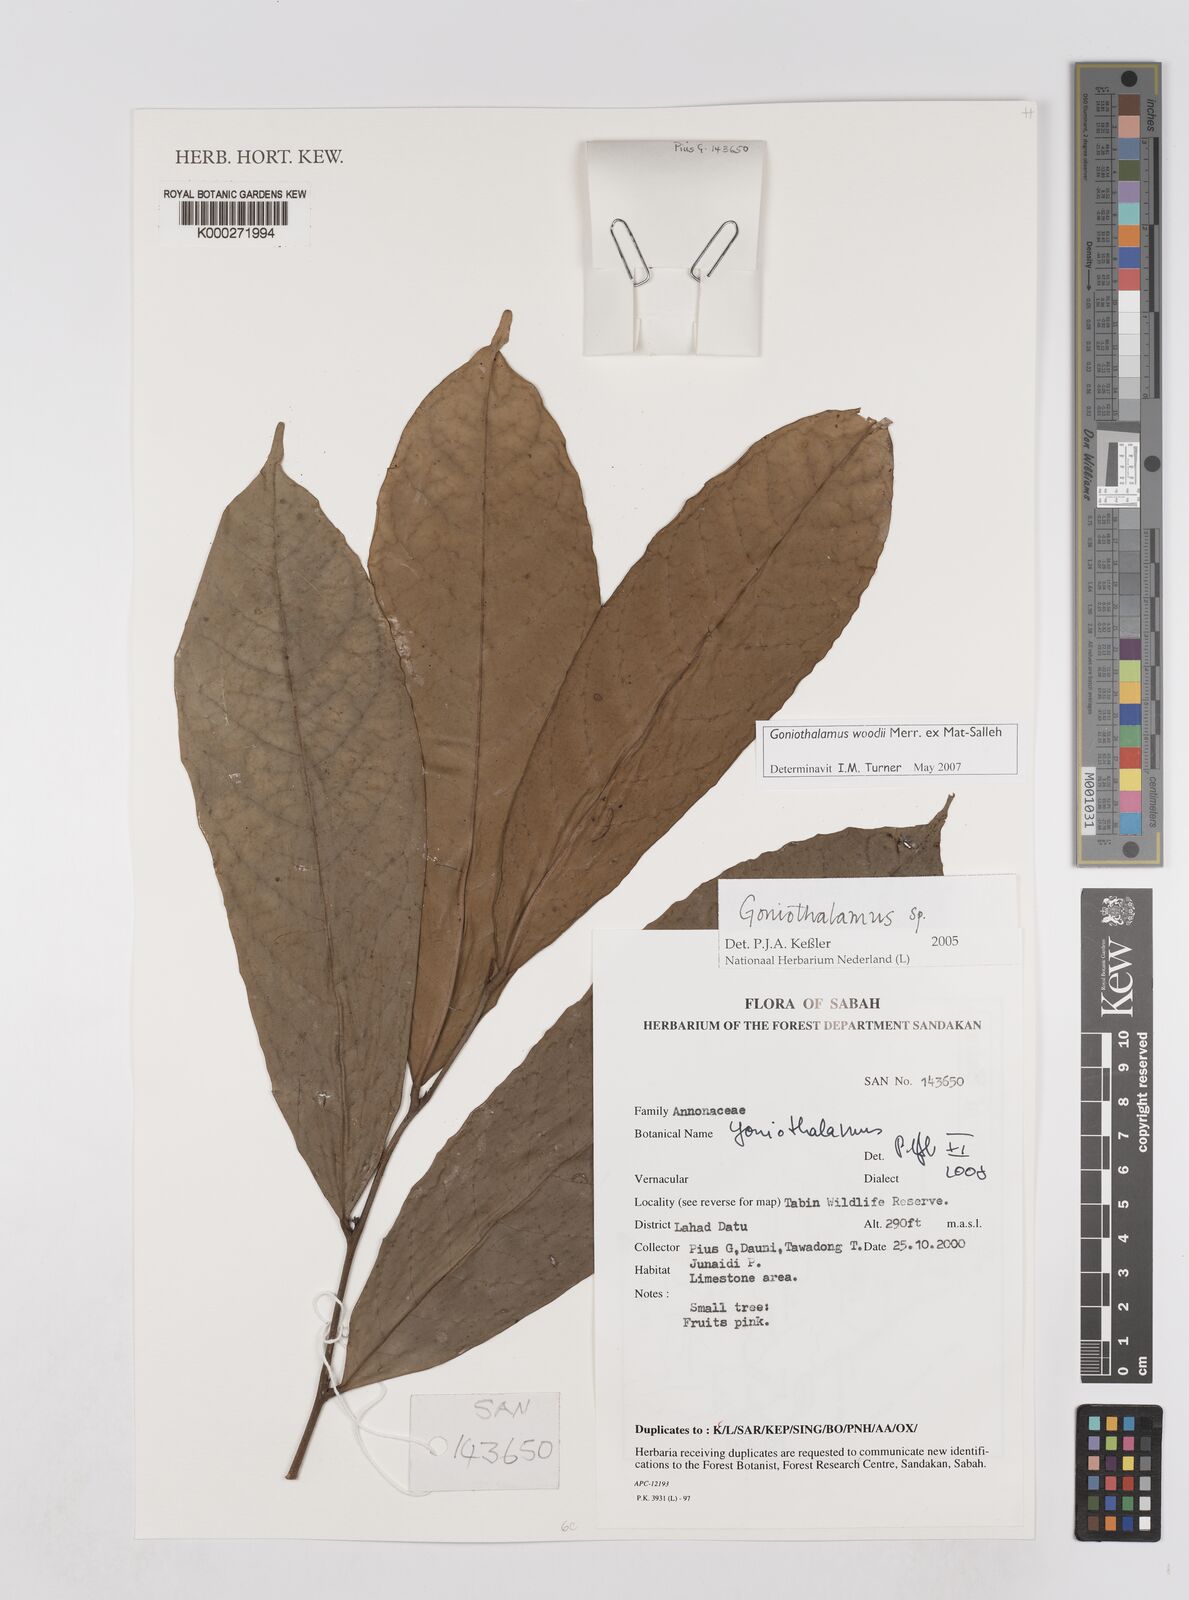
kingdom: Plantae
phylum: Tracheophyta
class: Magnoliopsida
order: Magnoliales
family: Annonaceae
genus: Goniothalamus
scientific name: Goniothalamus
